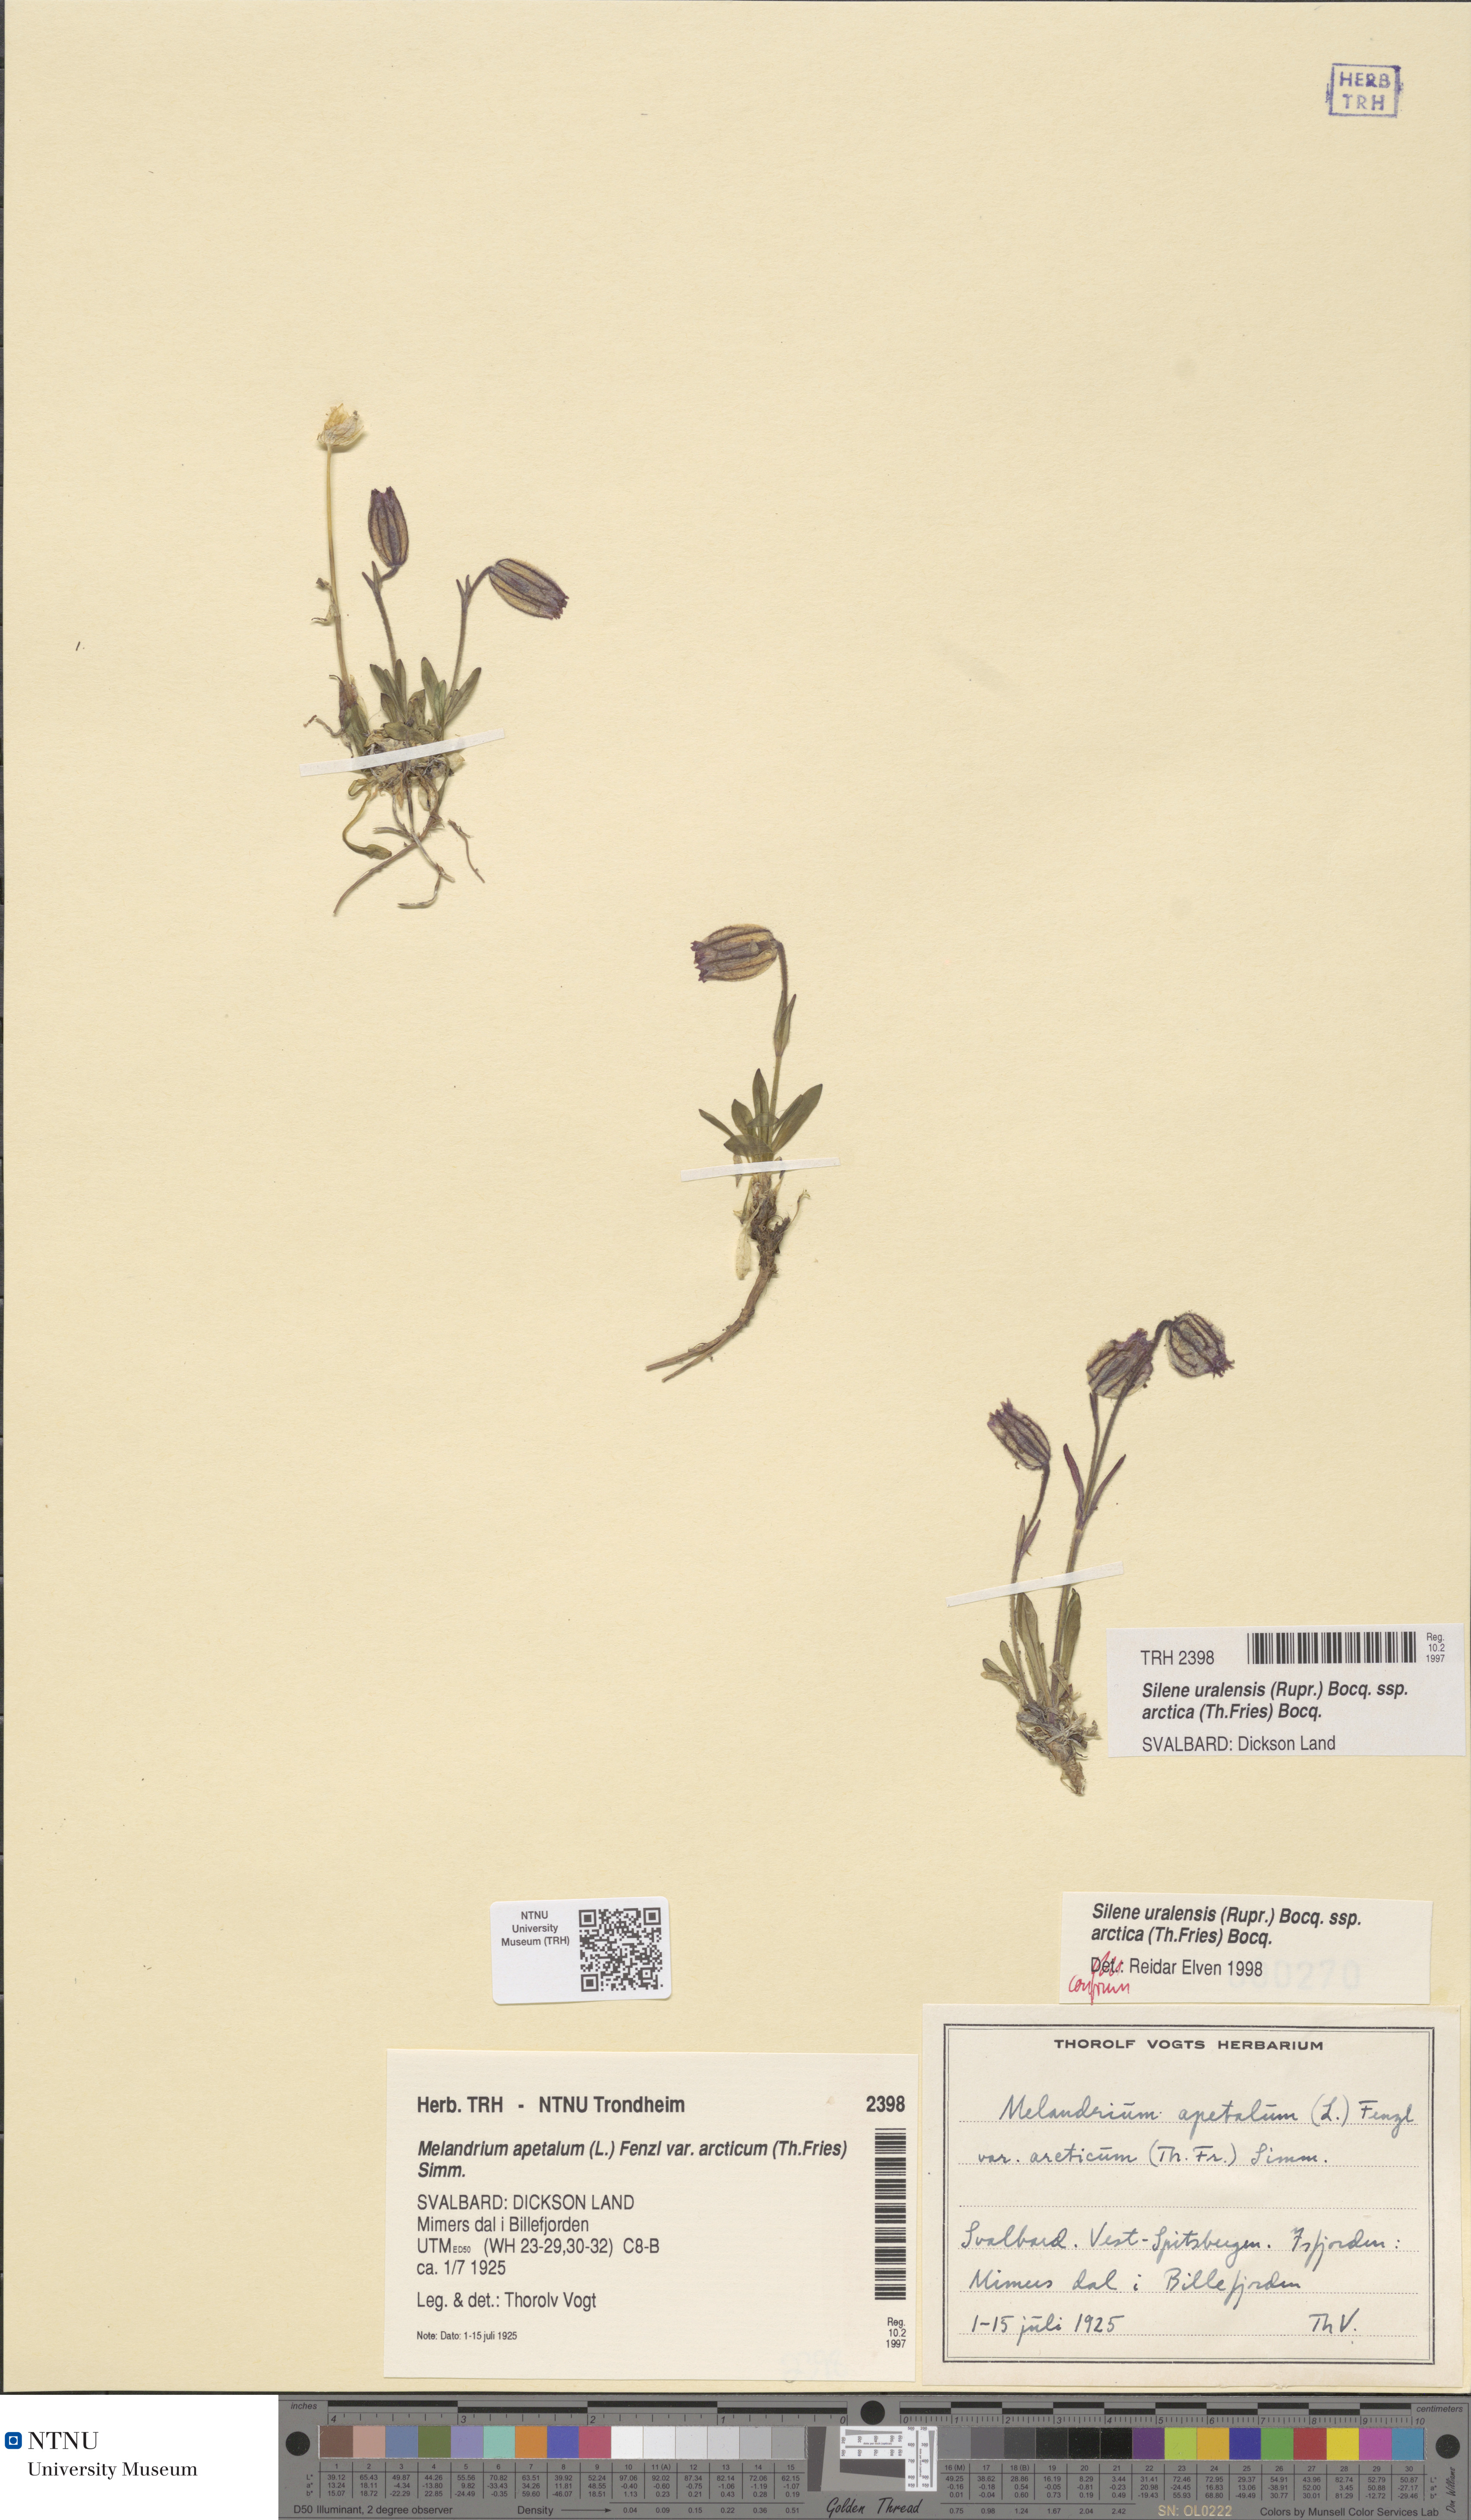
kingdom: Plantae
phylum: Tracheophyta
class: Magnoliopsida
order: Caryophyllales
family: Caryophyllaceae
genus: Silene
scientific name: Silene uralensis
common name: Nodding campion
